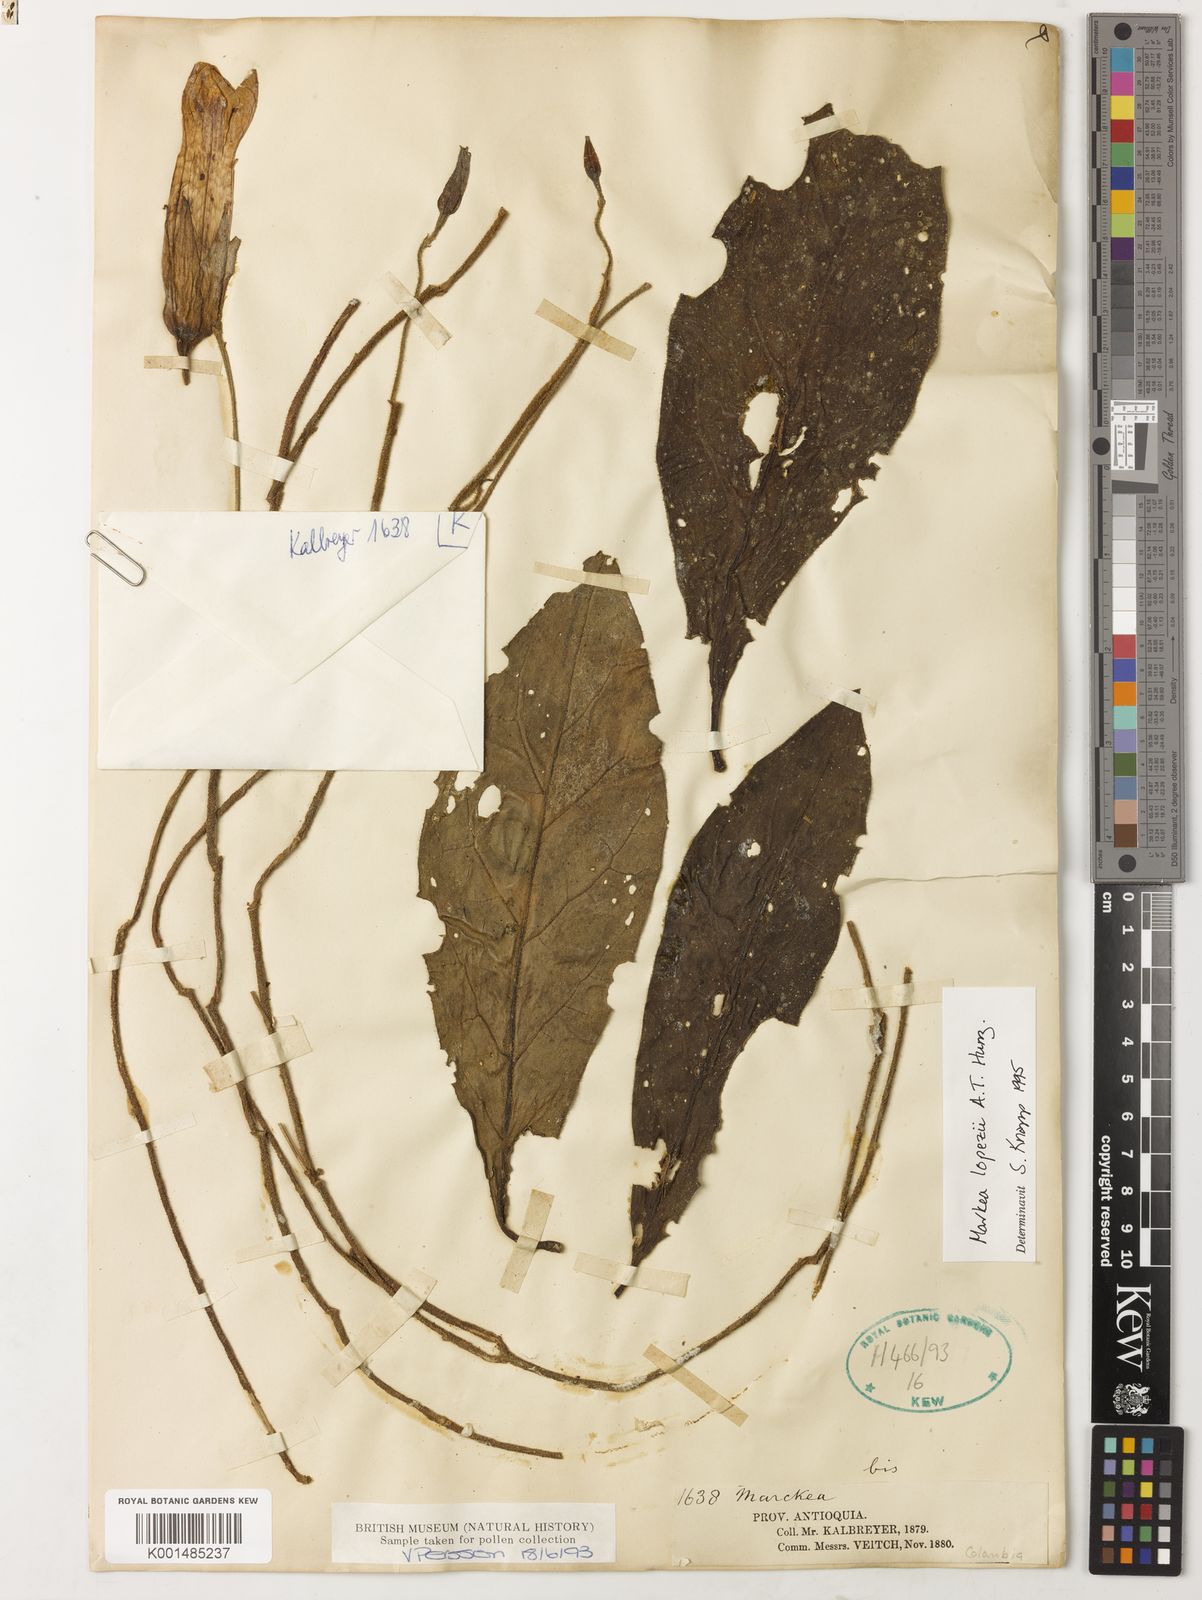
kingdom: Plantae
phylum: Tracheophyta
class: Magnoliopsida
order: Solanales
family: Solanaceae
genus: Doselia
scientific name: Doselia lopezii
